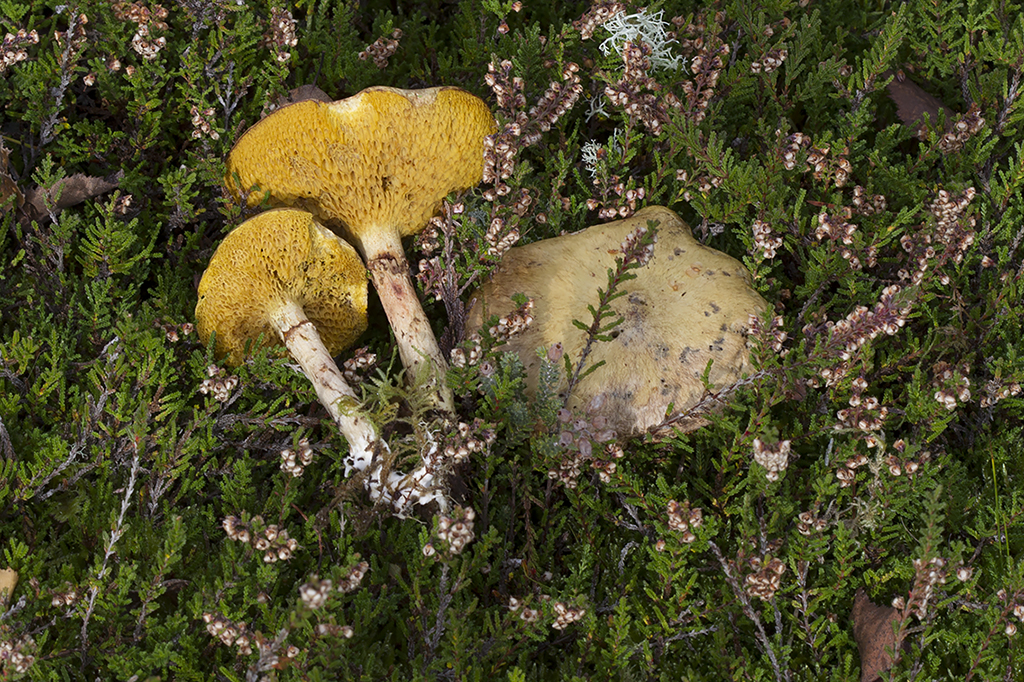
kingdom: Fungi
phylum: Basidiomycota
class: Agaricomycetes
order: Boletales
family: Suillaceae
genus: Suillus
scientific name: Suillus flavidus
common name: mose-slimrørhat
